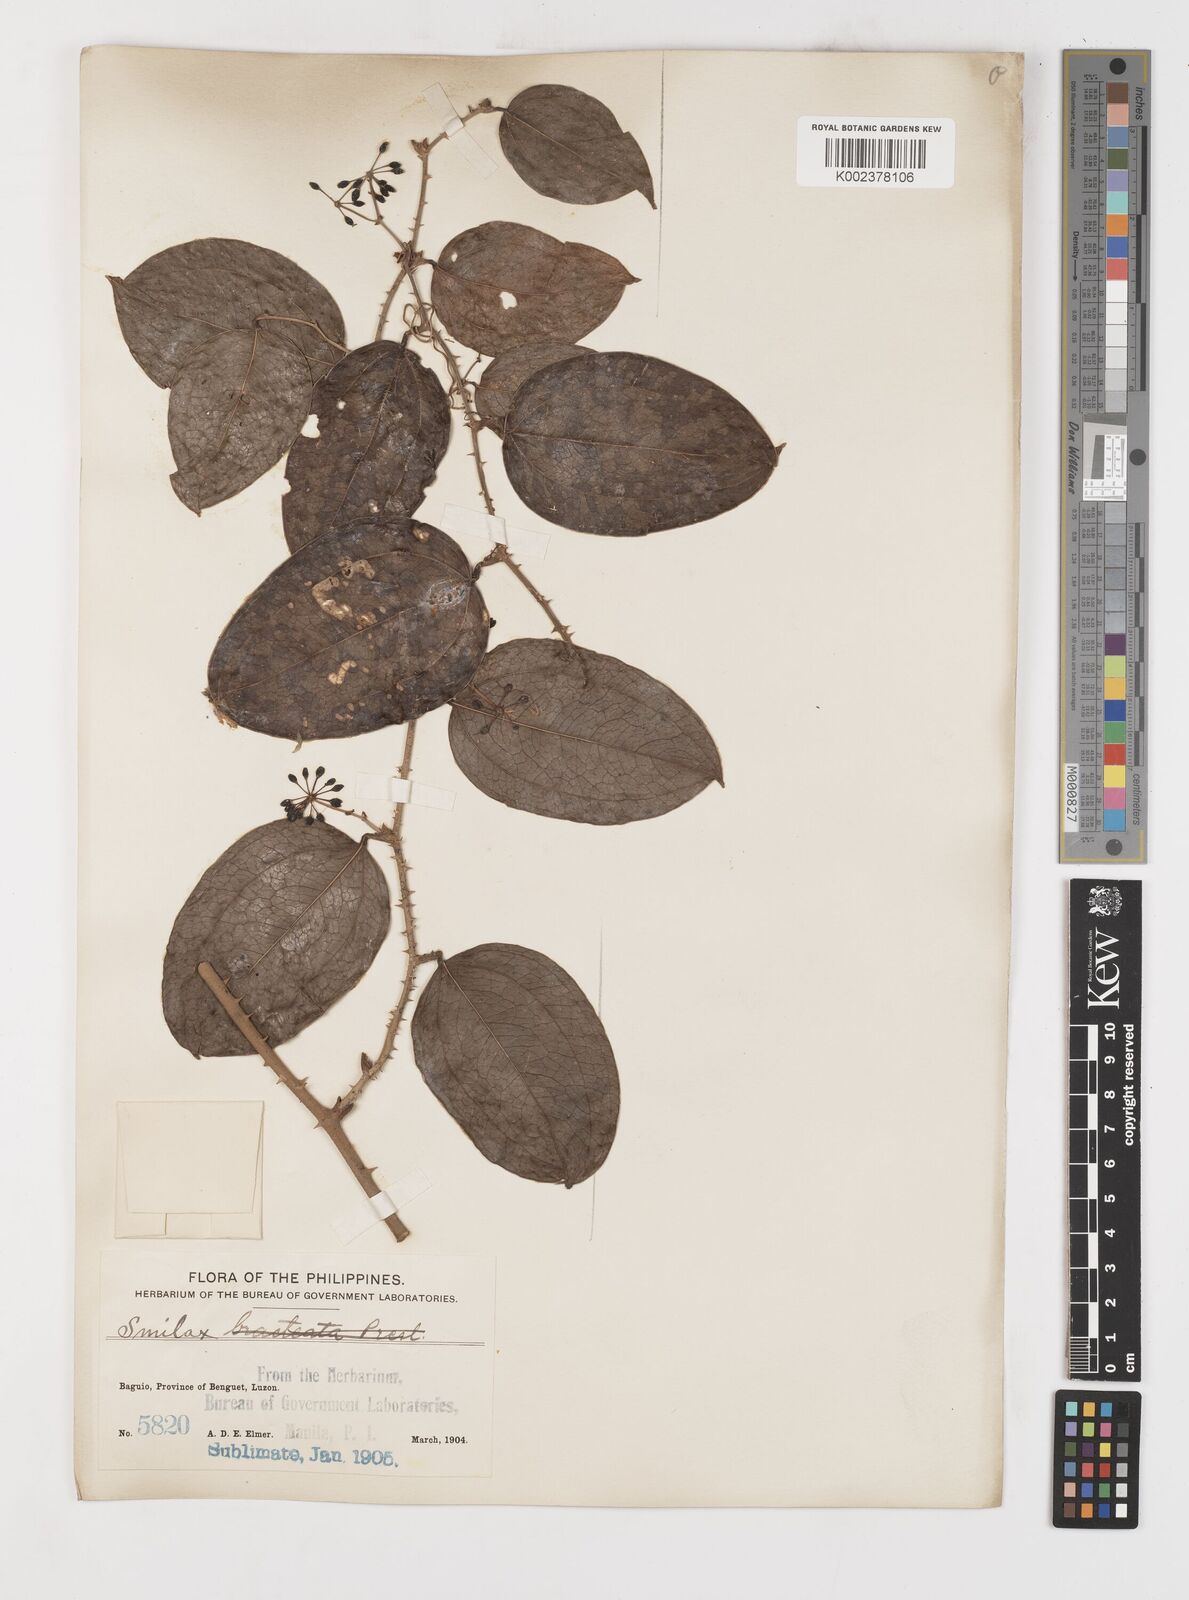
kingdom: Plantae
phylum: Tracheophyta
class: Liliopsida
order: Liliales
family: Smilacaceae
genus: Smilax
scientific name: Smilax
